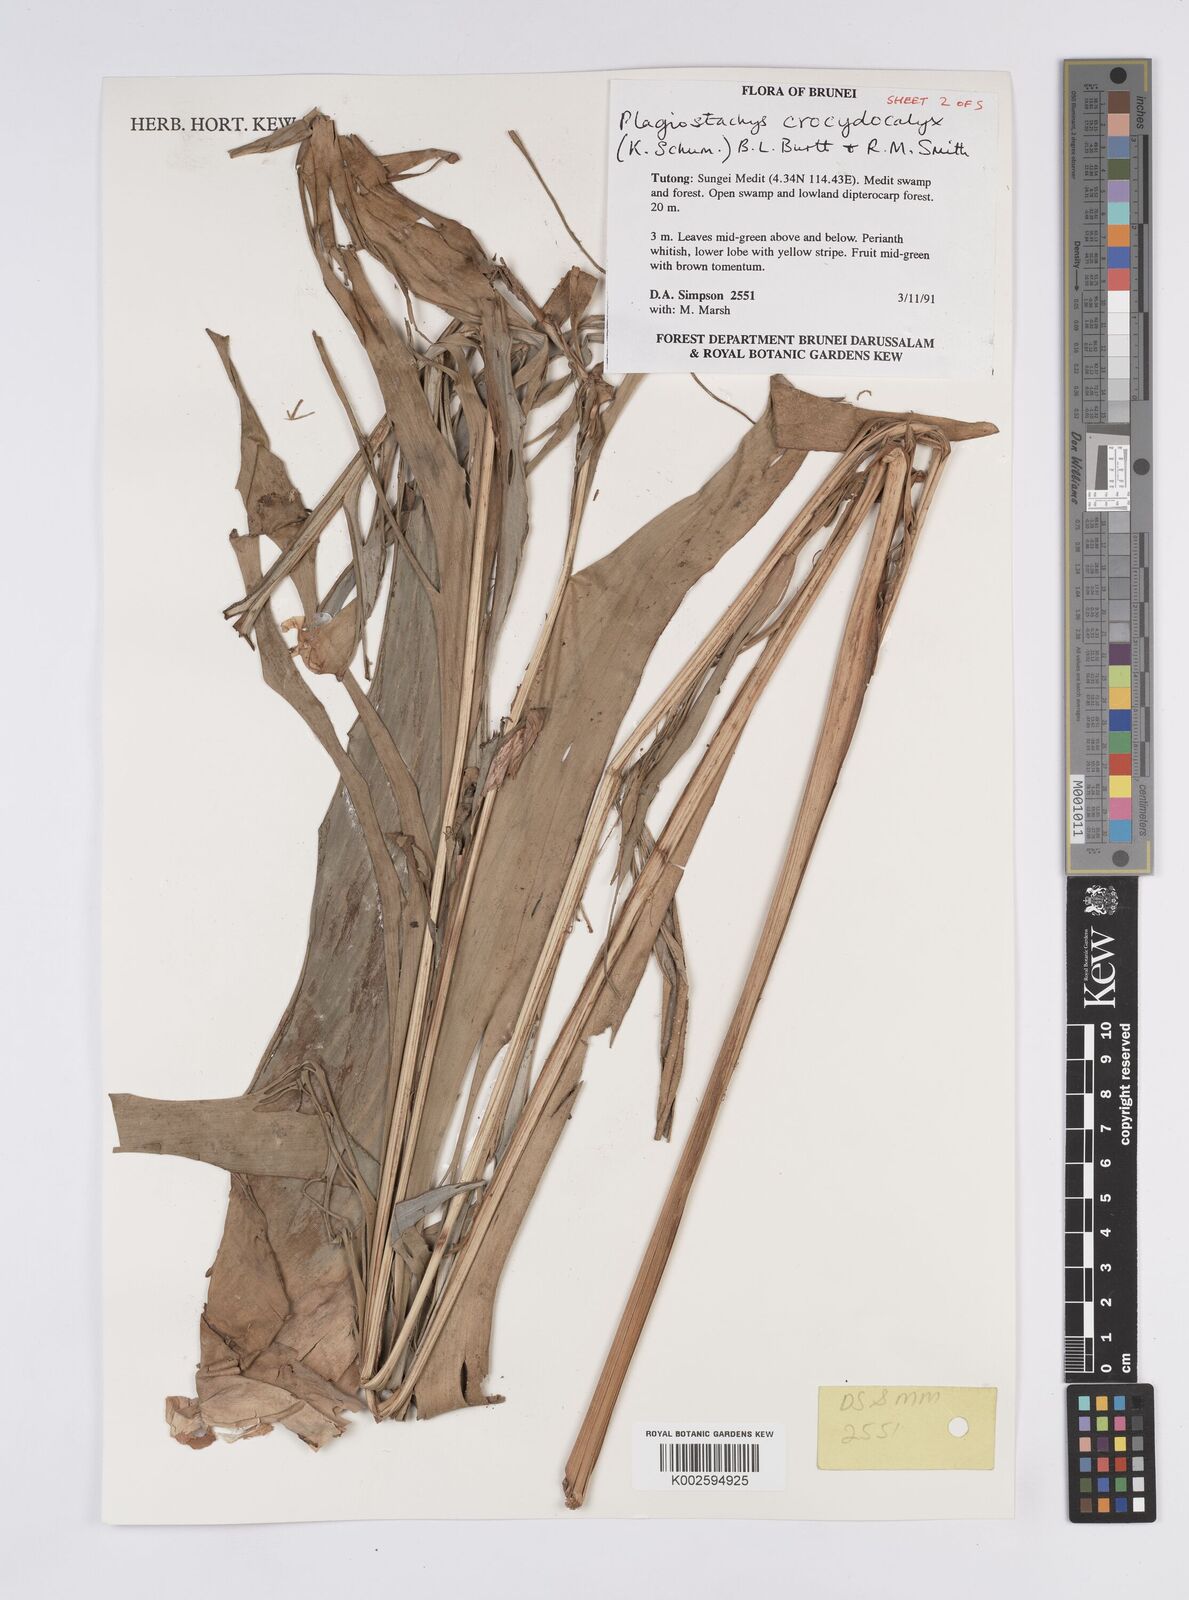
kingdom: Plantae
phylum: Tracheophyta
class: Liliopsida
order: Zingiberales
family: Zingiberaceae
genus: Plagiostachys
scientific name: Plagiostachys crocydocalyx
